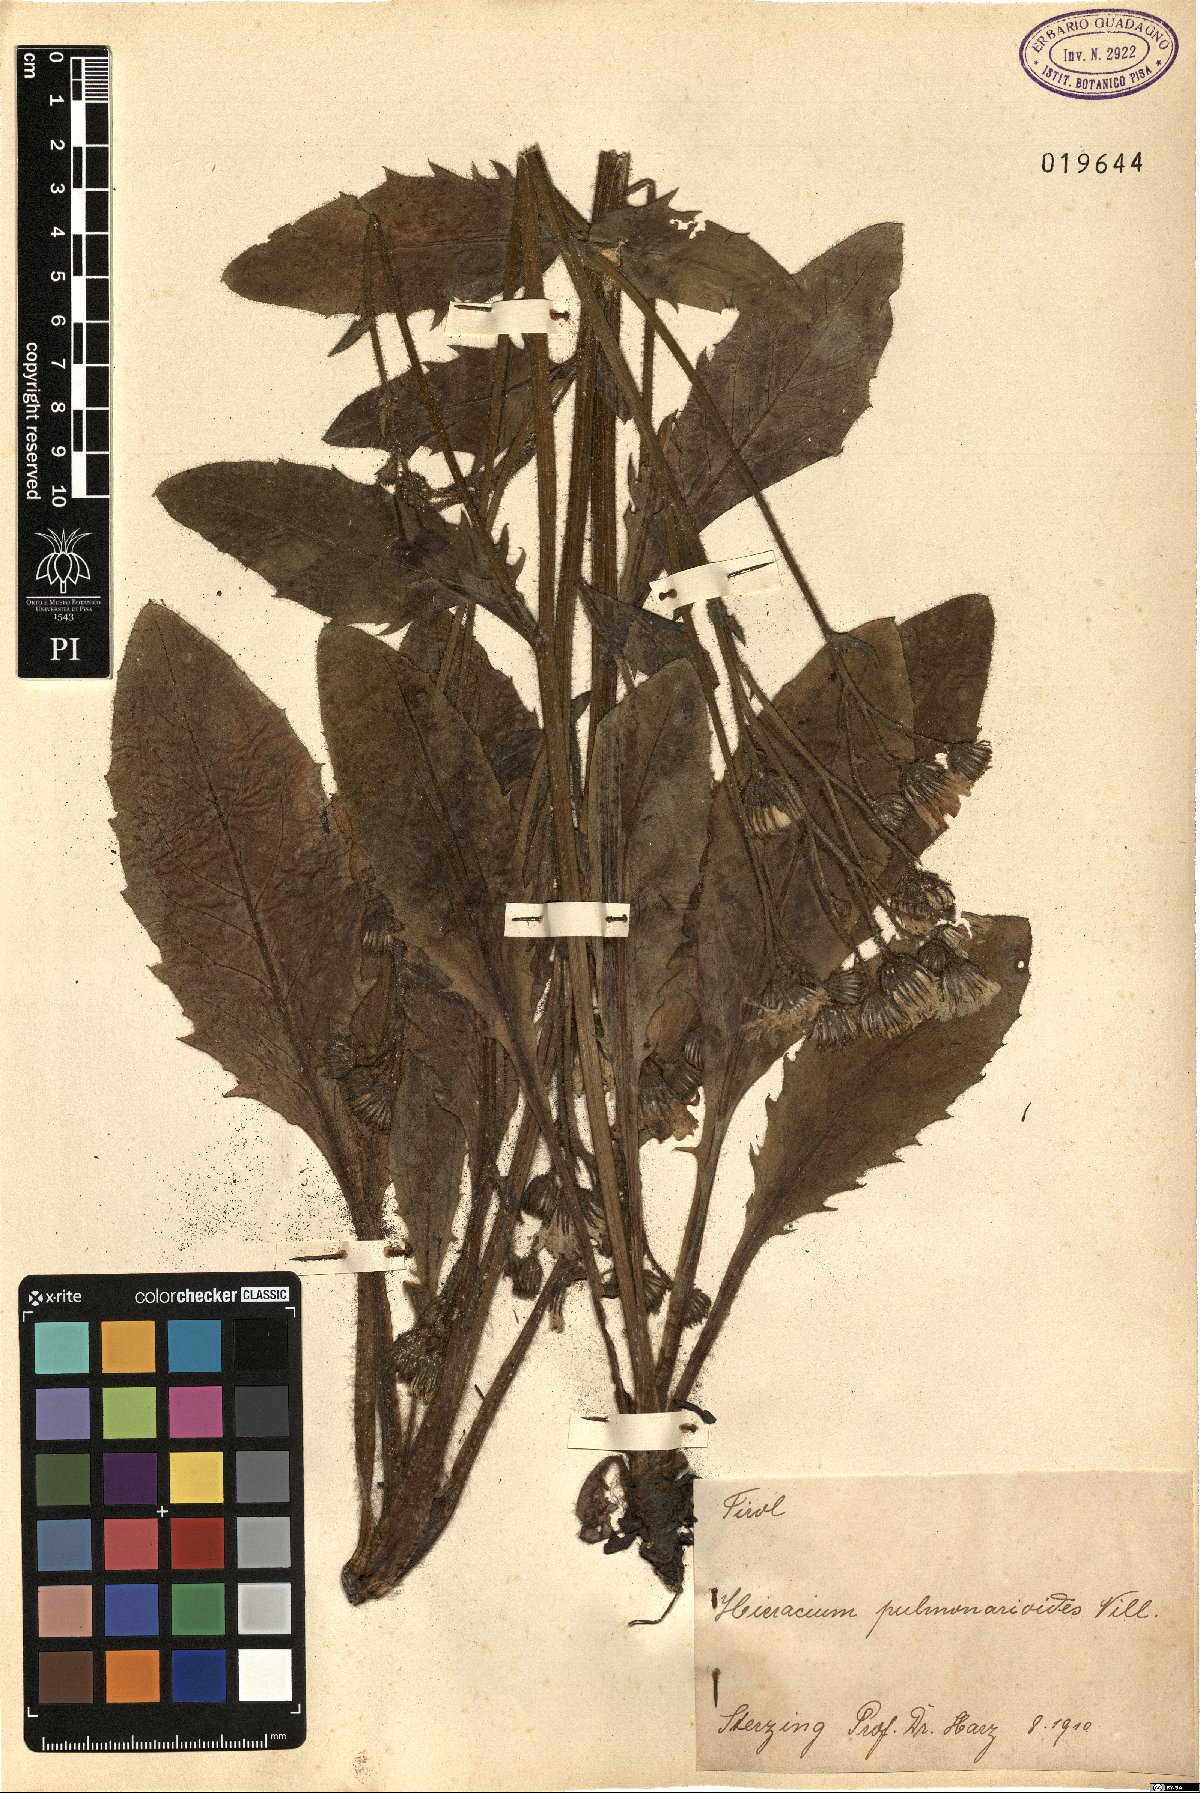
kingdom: Plantae
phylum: Tracheophyta
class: Magnoliopsida
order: Asterales
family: Asteraceae
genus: Hieracium
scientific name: Hieracium pulmonarioides
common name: Wall hawkweed
